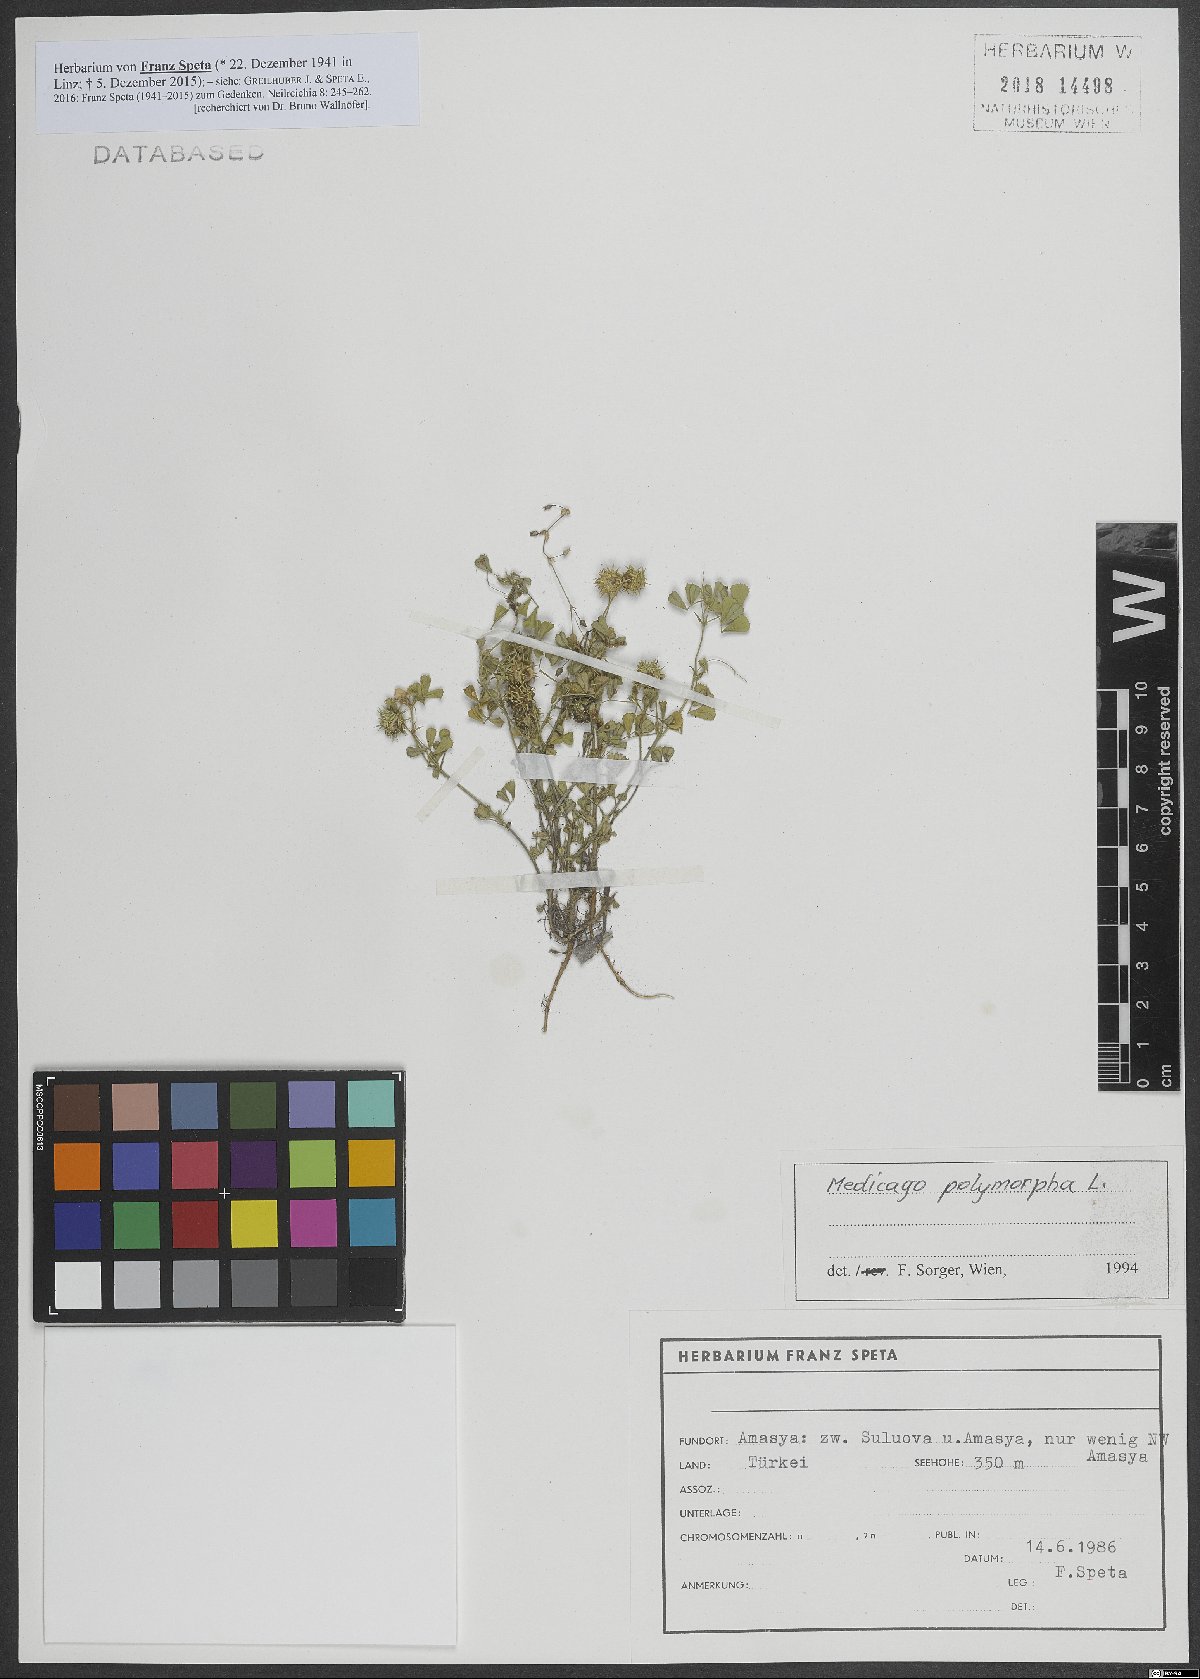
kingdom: Plantae
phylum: Tracheophyta
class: Magnoliopsida
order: Fabales
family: Fabaceae
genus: Medicago
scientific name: Medicago polymorpha
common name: Burclover
